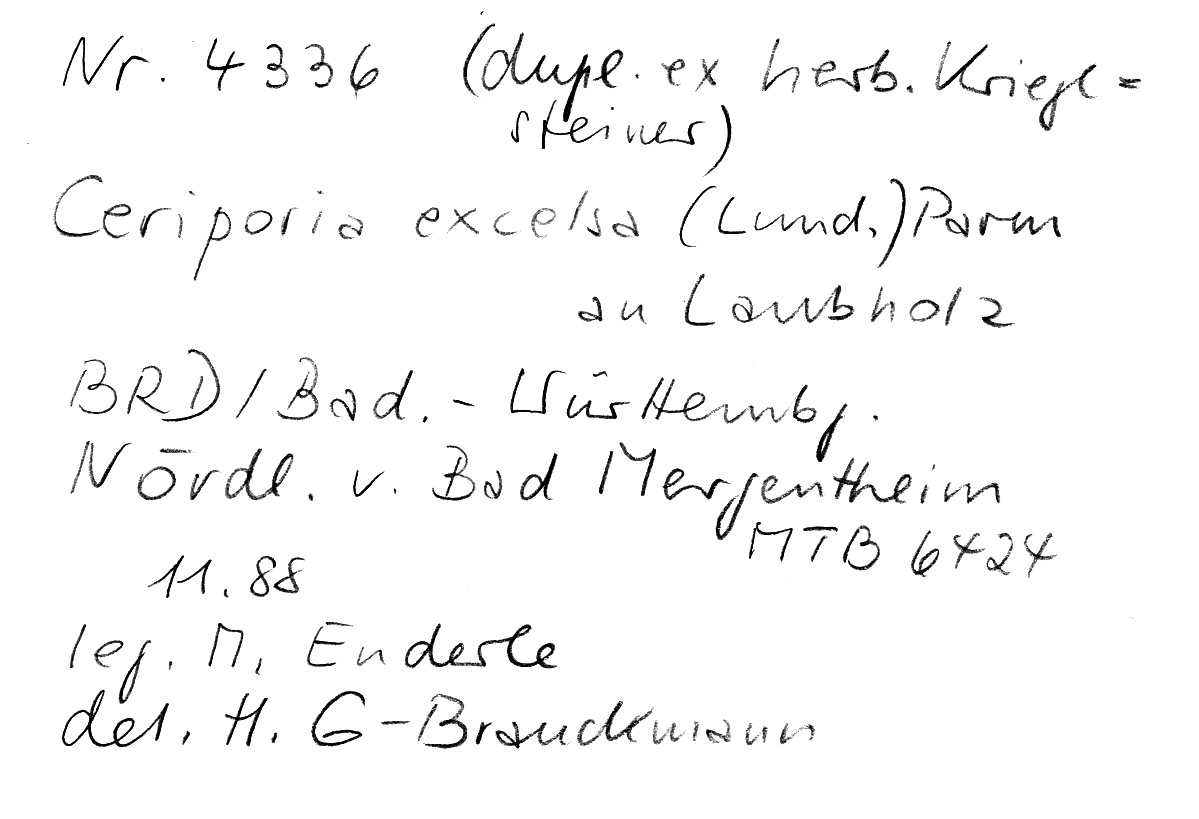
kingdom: Fungi
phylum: Basidiomycota
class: Agaricomycetes
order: Polyporales
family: Irpicaceae
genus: Ceriporia
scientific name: Ceriporia excelsa
